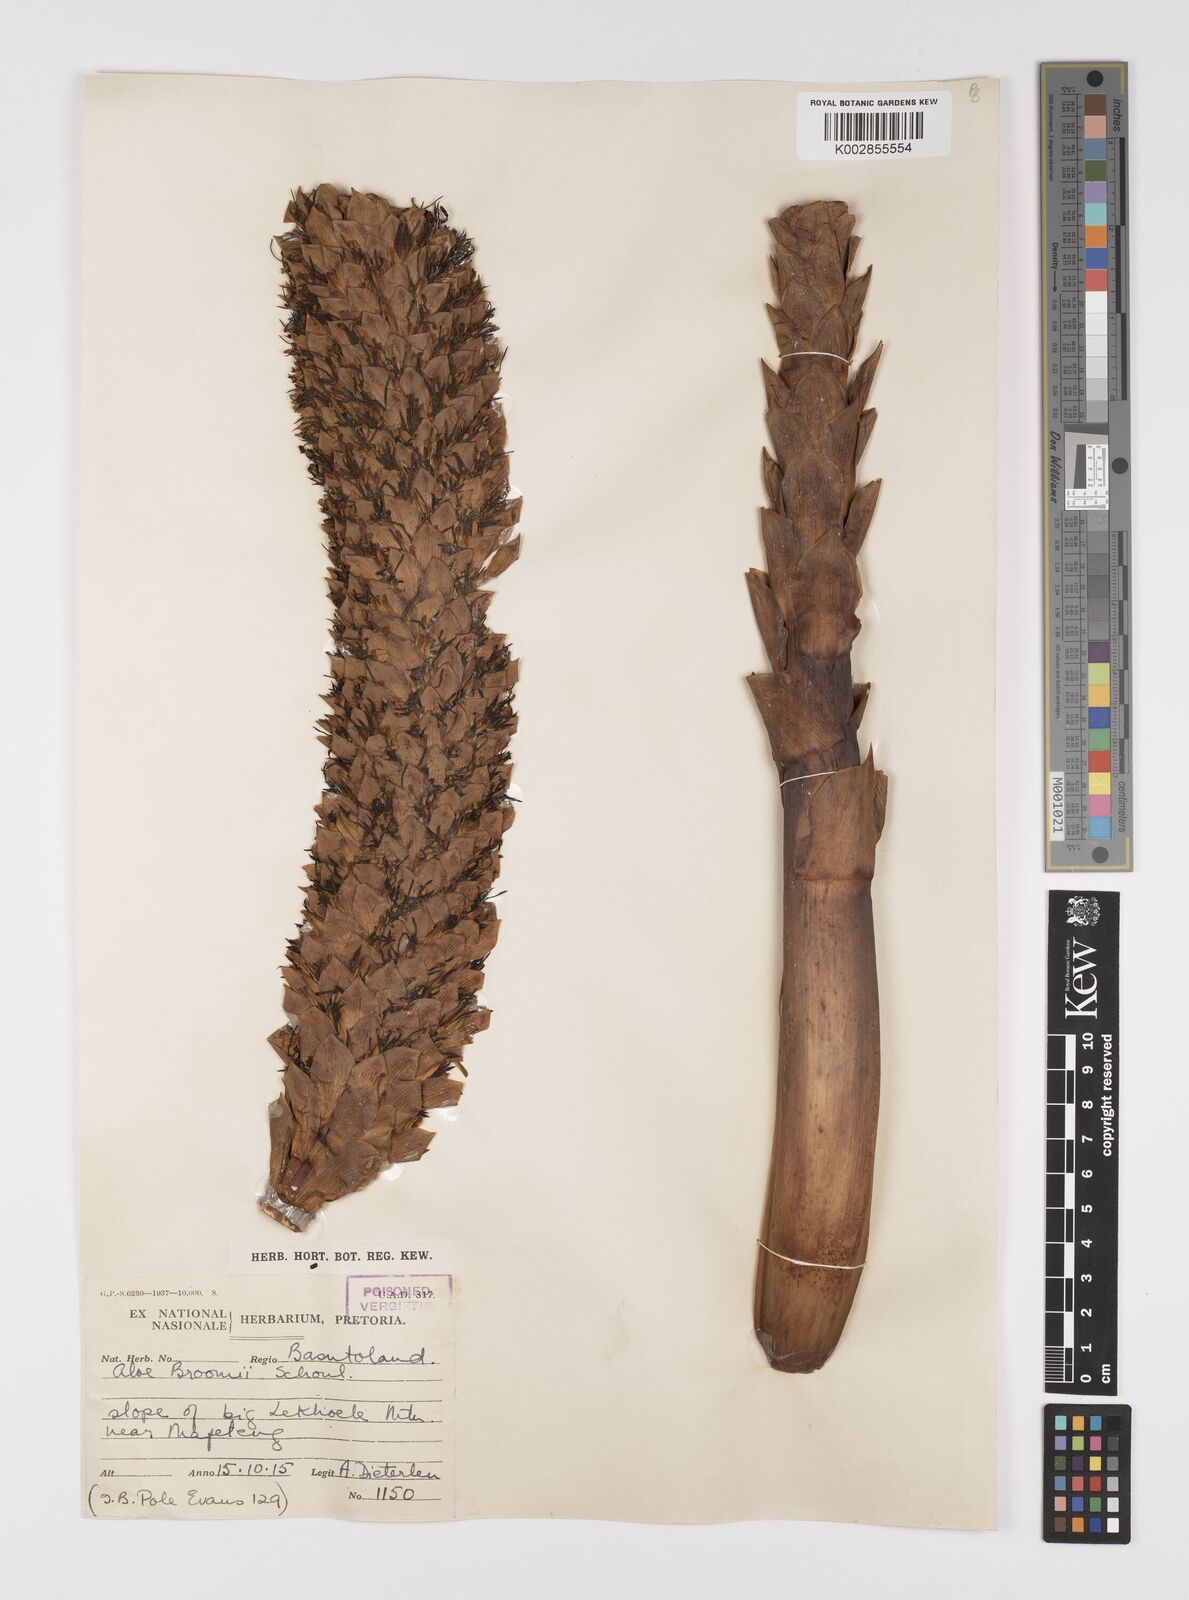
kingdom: Plantae
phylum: Tracheophyta
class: Liliopsida
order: Asparagales
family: Asphodelaceae
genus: Aloe
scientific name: Aloe broomii
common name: Berg alwyn
